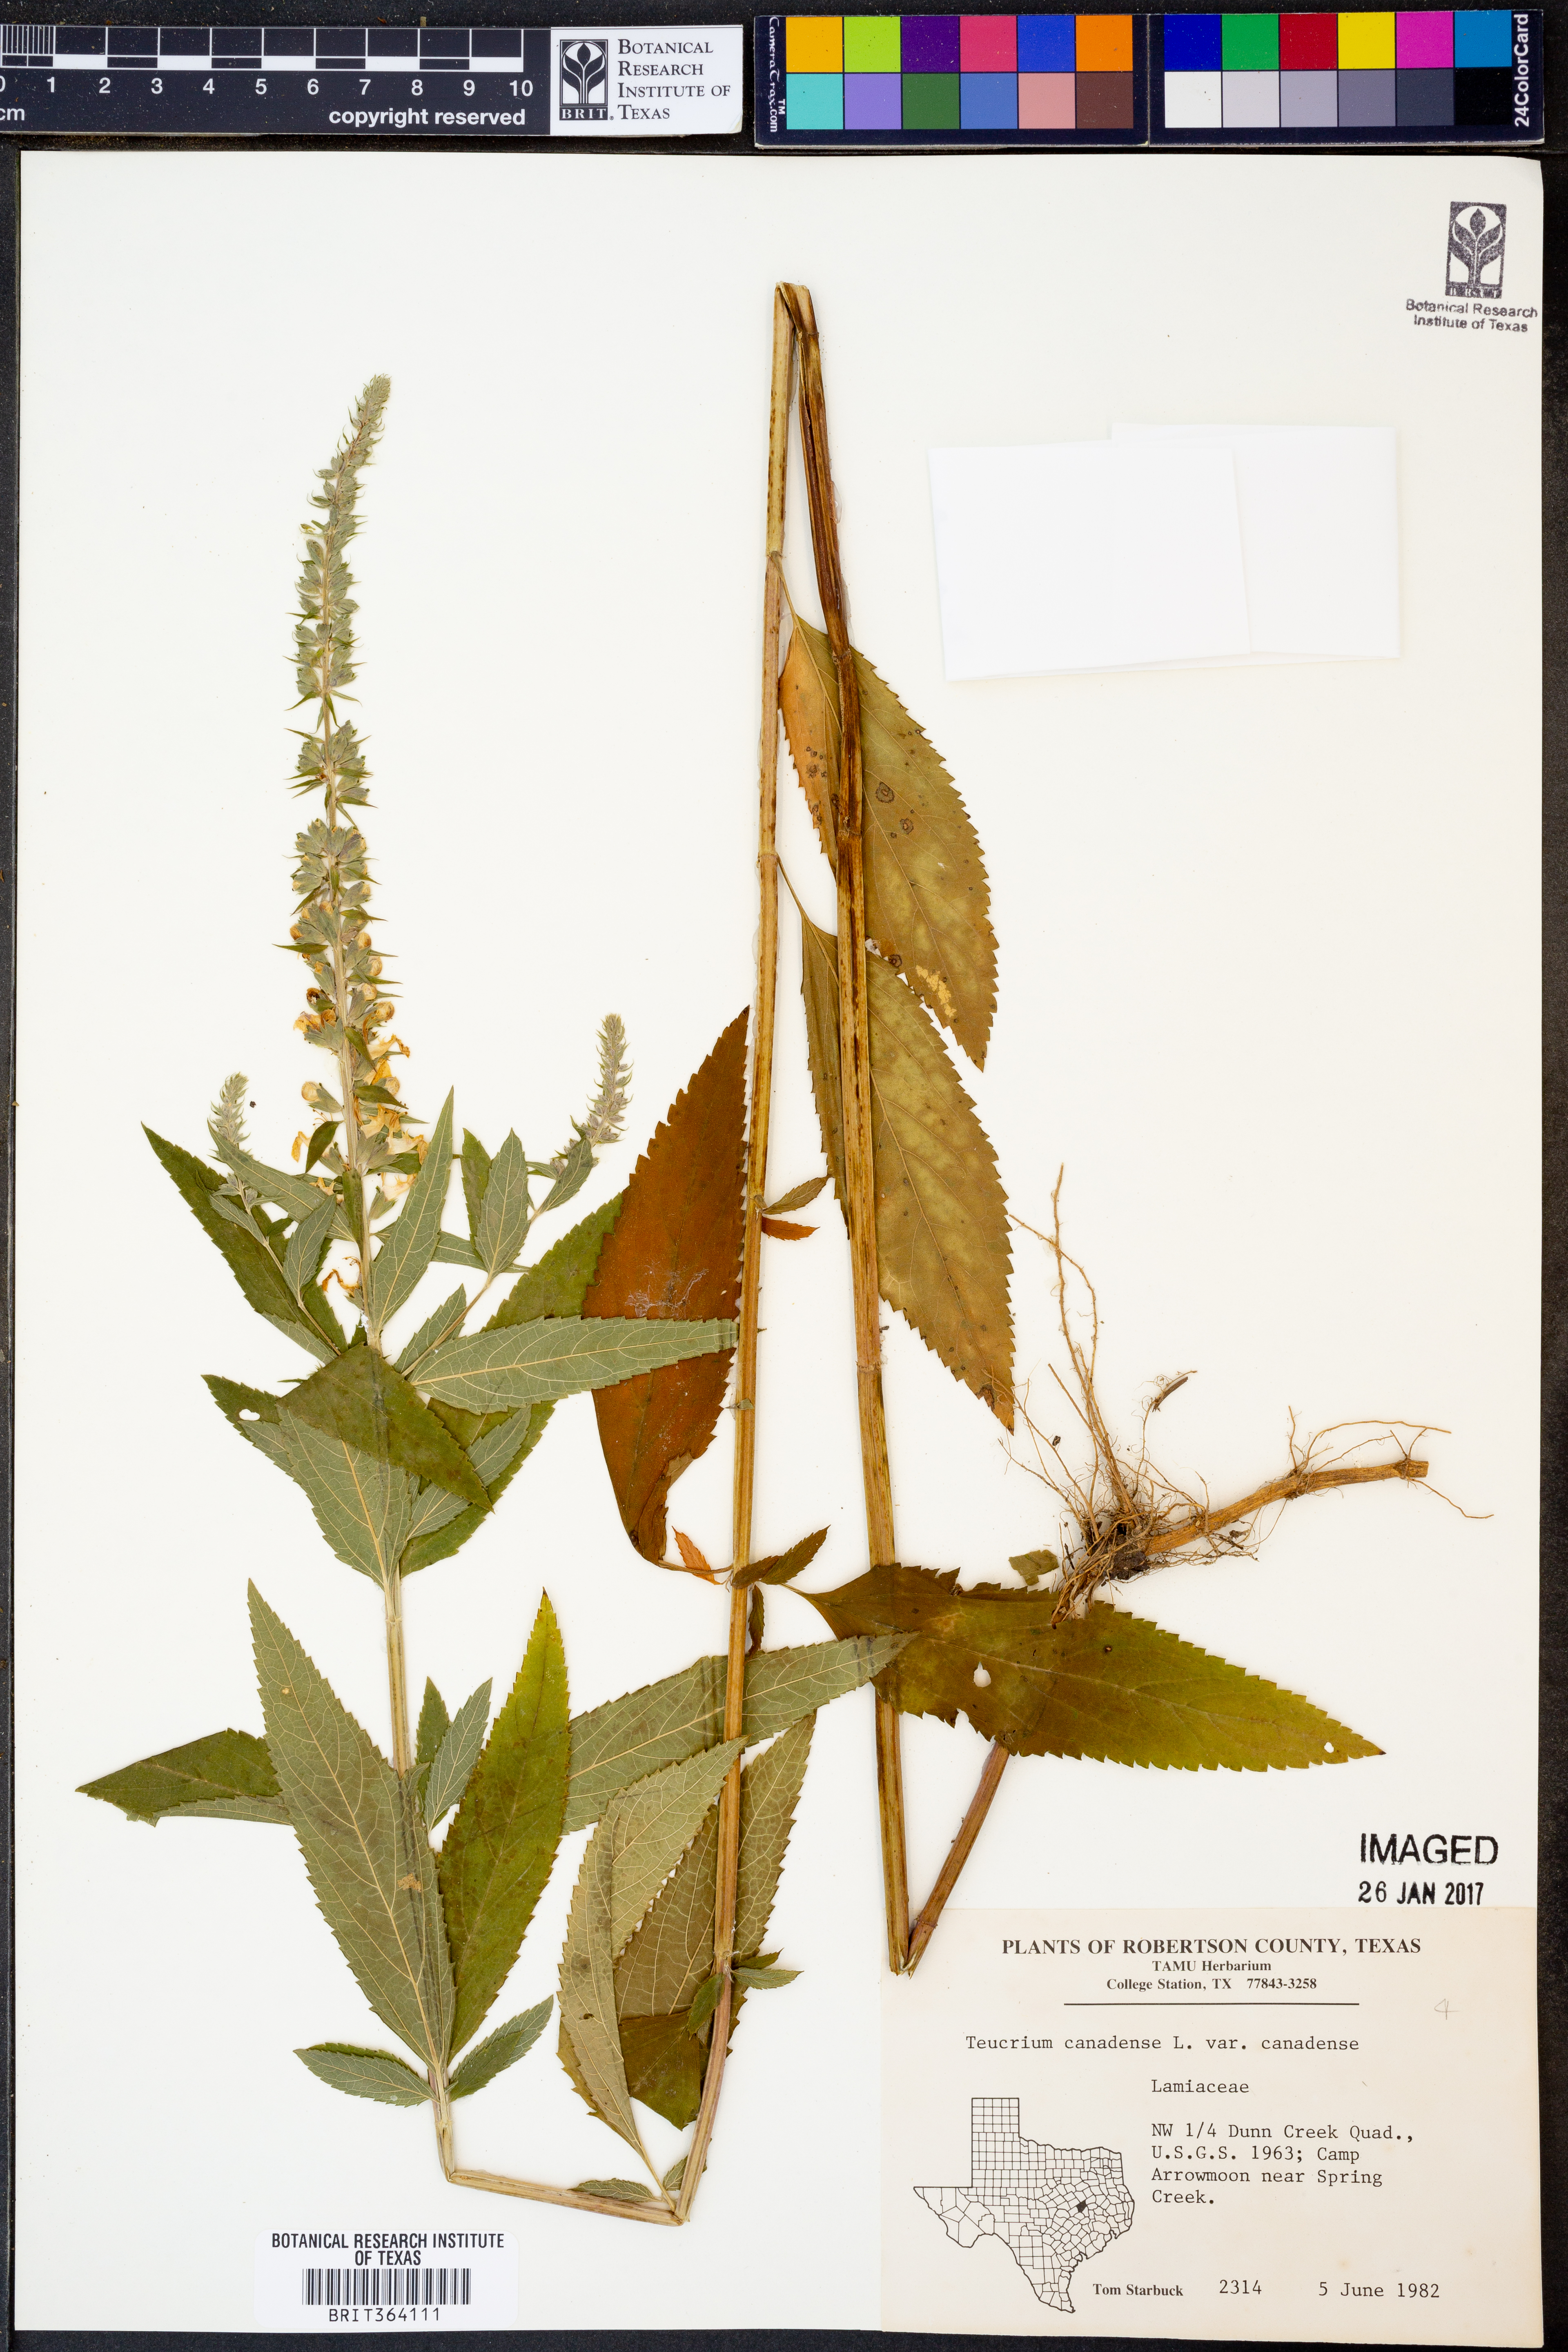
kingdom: Plantae
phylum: Tracheophyta
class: Magnoliopsida
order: Lamiales
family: Lamiaceae
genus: Teucrium
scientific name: Teucrium canadense
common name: American germander
